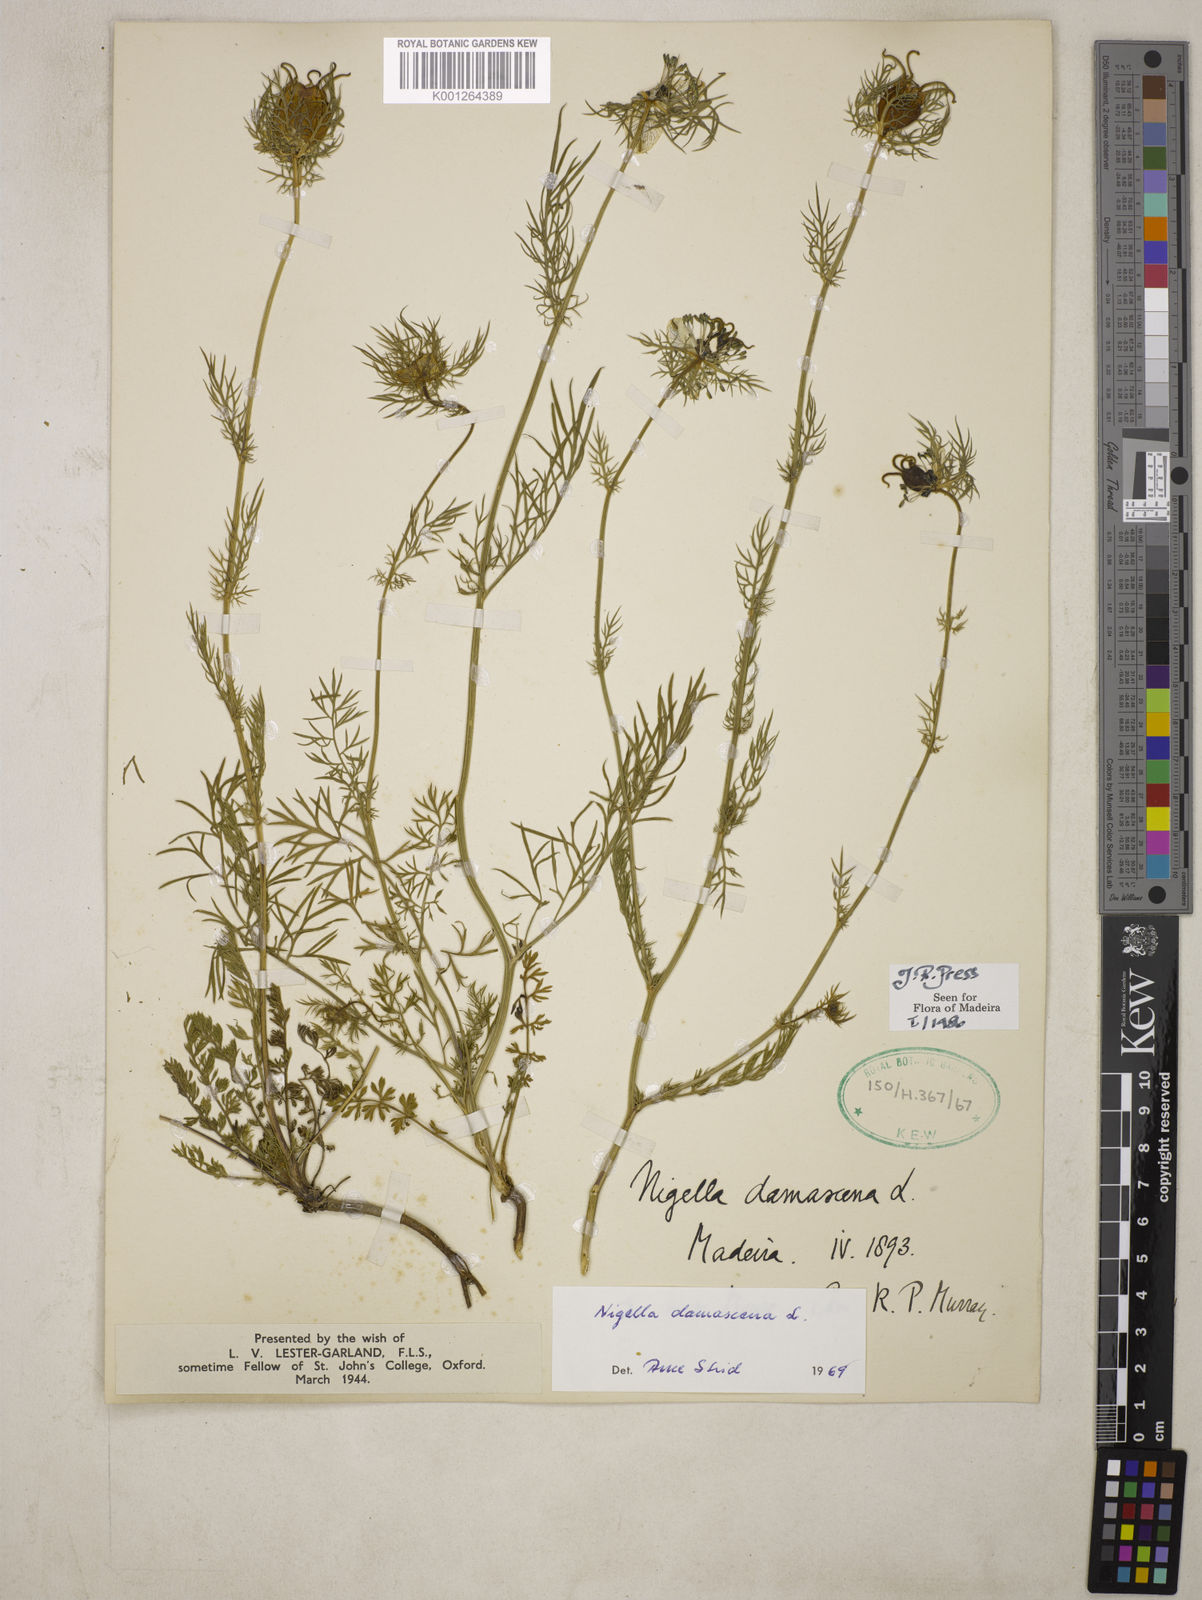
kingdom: Plantae
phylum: Tracheophyta
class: Magnoliopsida
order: Ranunculales
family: Ranunculaceae
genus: Nigella
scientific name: Nigella damascena
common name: Love-in-a-mist
